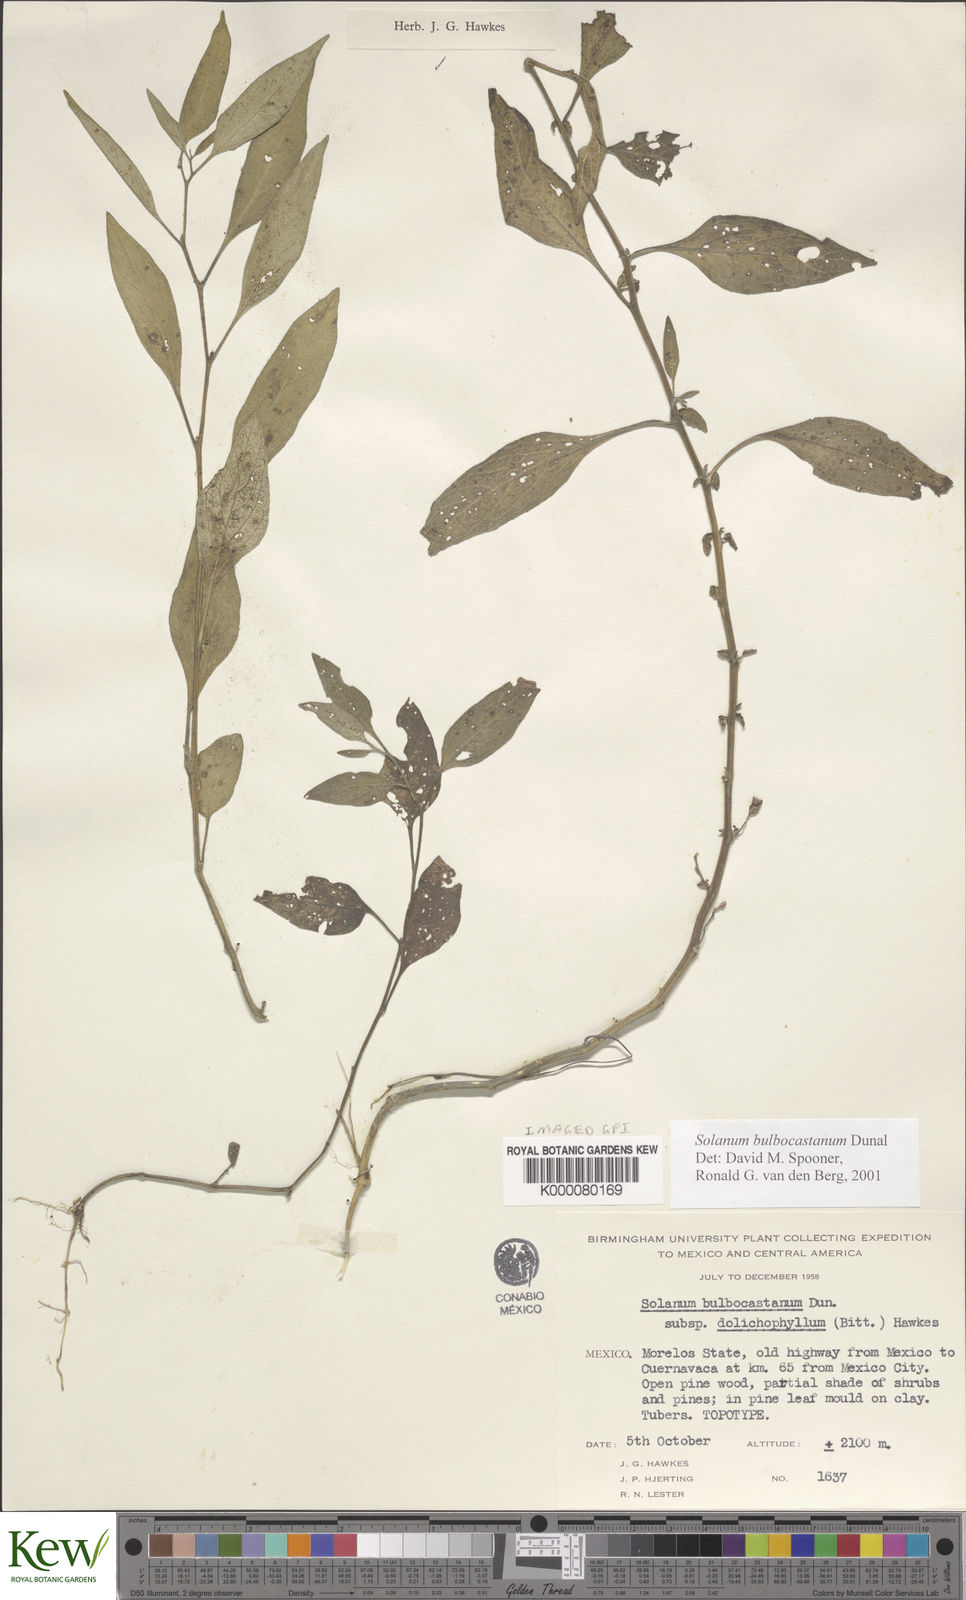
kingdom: Plantae
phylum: Tracheophyta
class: Magnoliopsida
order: Solanales
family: Solanaceae
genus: Solanum
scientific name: Solanum bulbocastanum
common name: Ornamental nightshade
